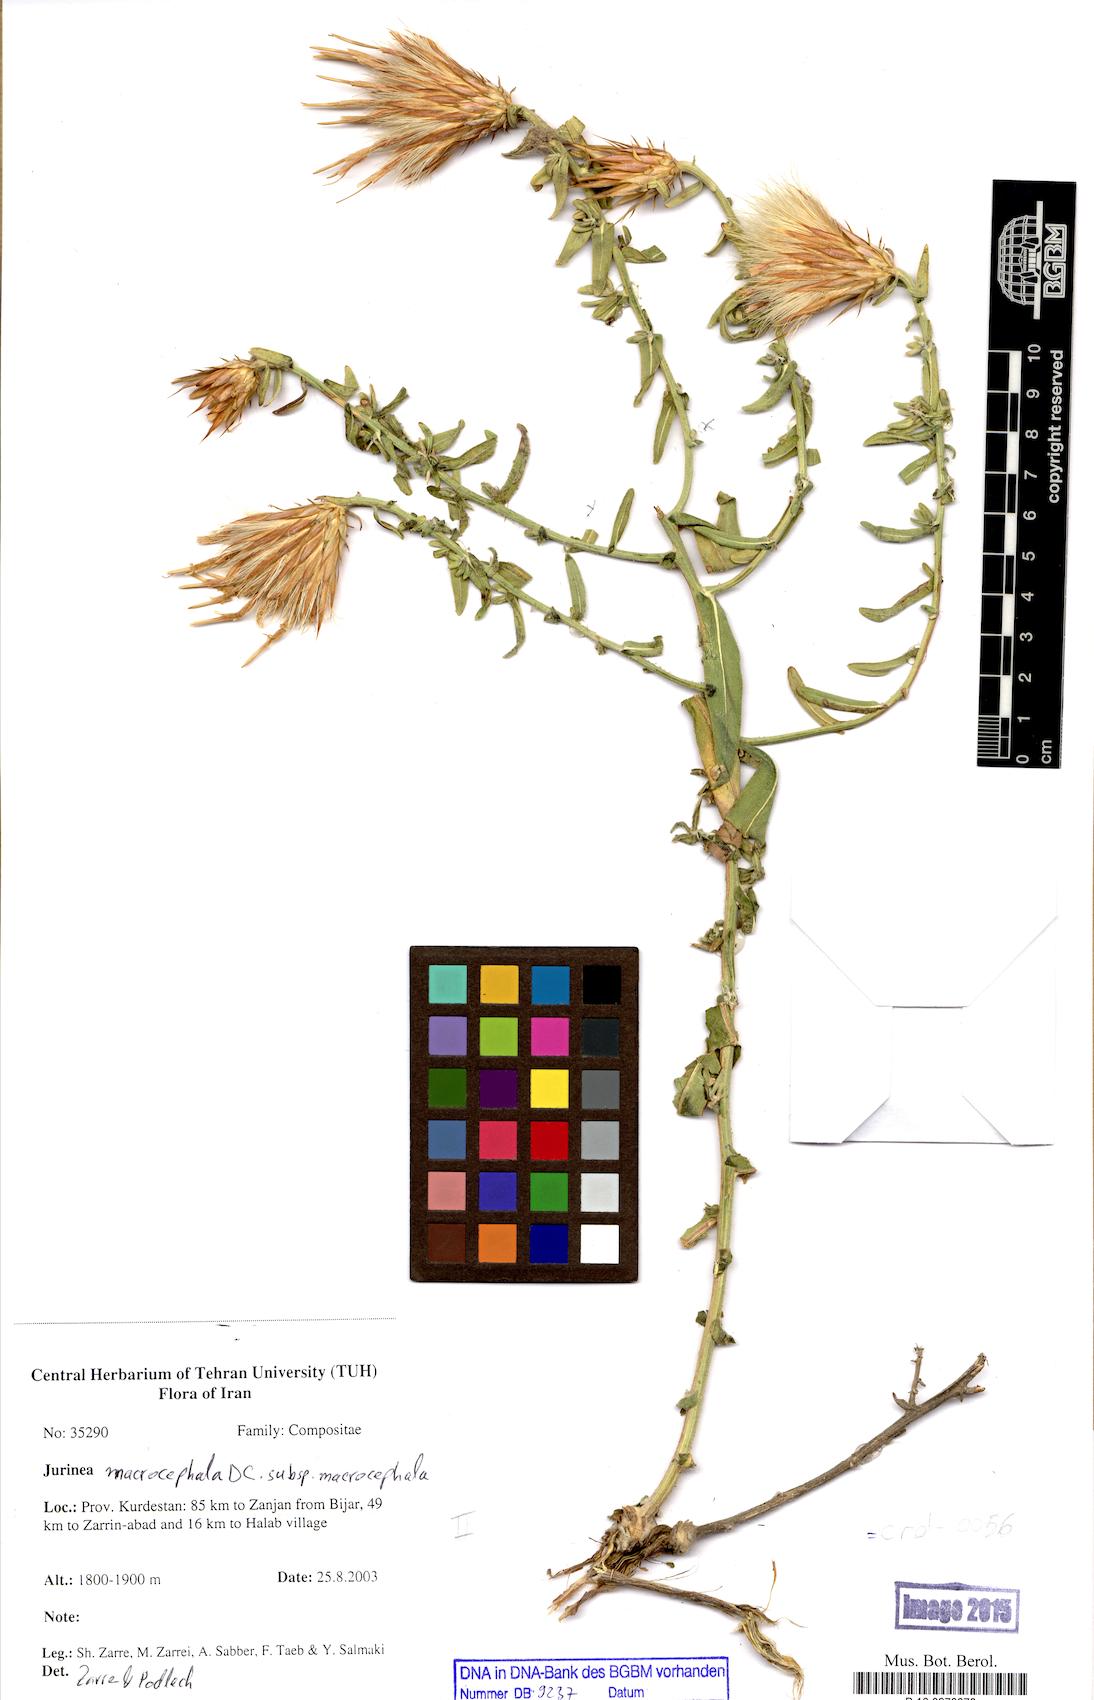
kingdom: Plantae
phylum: Tracheophyta
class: Magnoliopsida
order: Asterales
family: Asteraceae
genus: Jurinea
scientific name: Jurinea macrocephala
